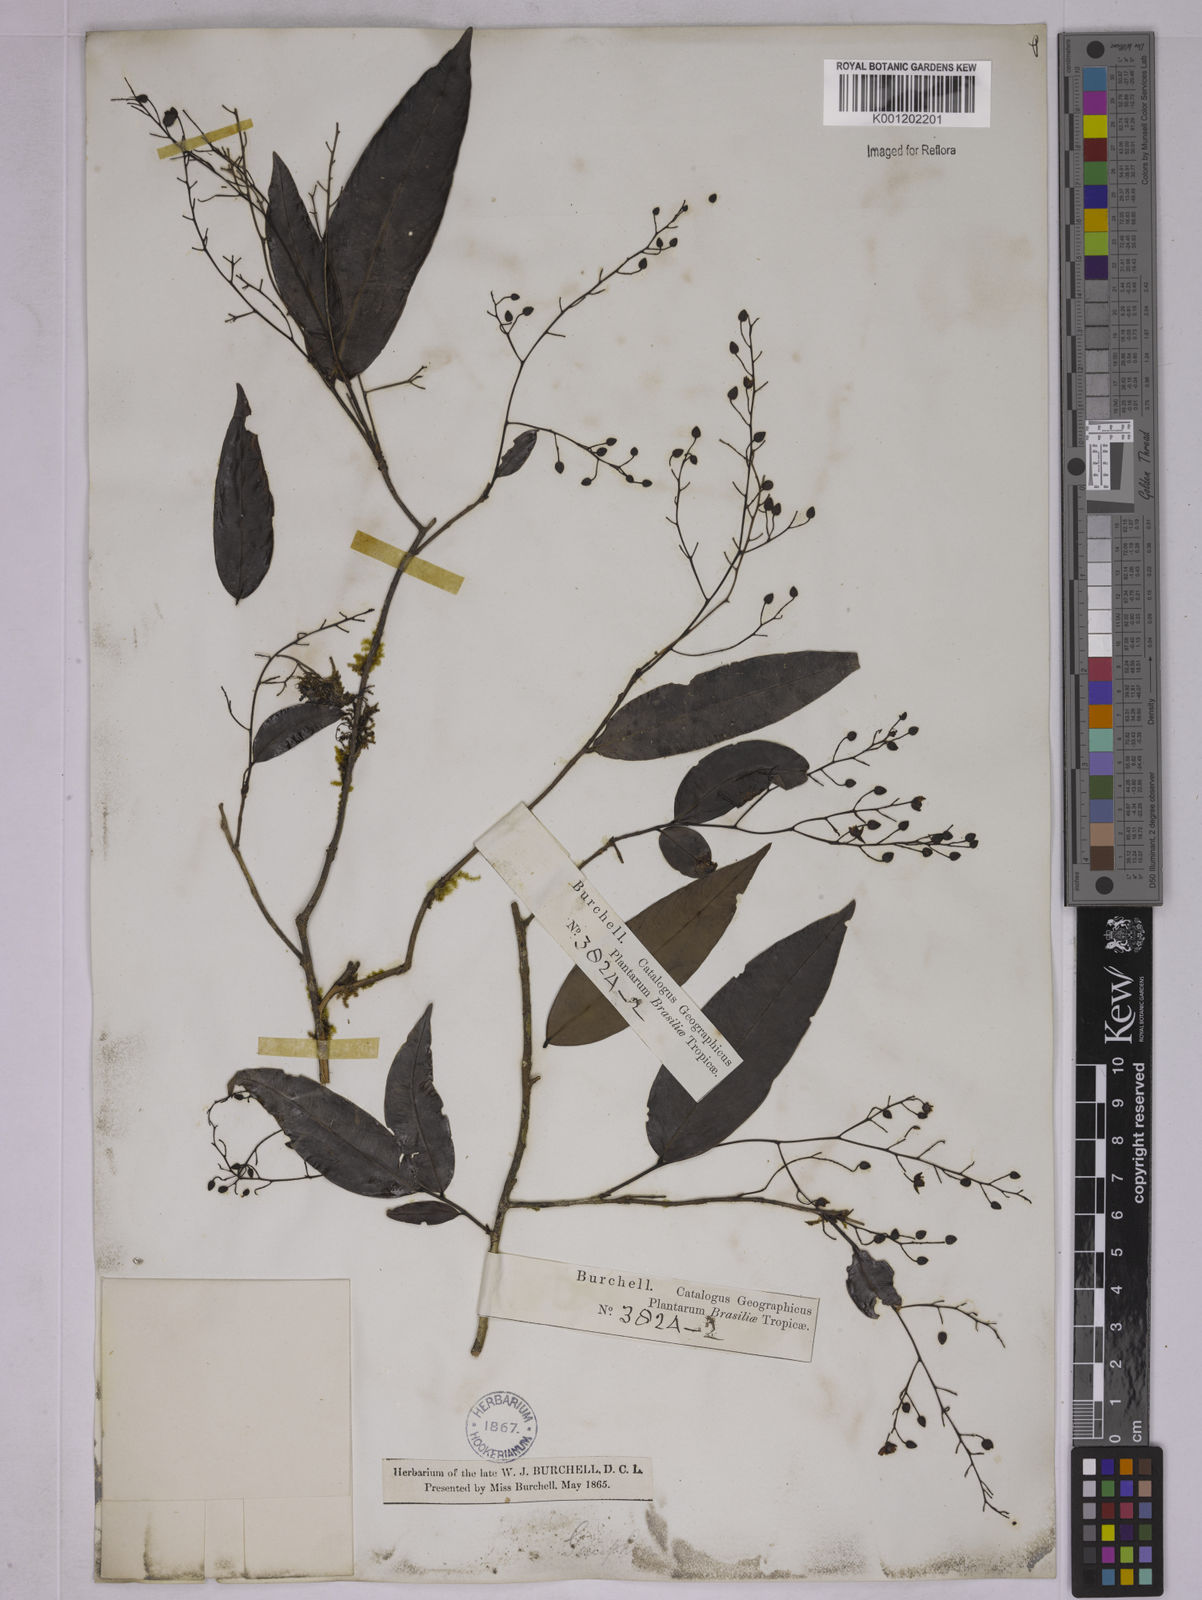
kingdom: Plantae
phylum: Tracheophyta
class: Magnoliopsida
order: Malpighiales
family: Ochnaceae
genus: Ouratea
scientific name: Ouratea
